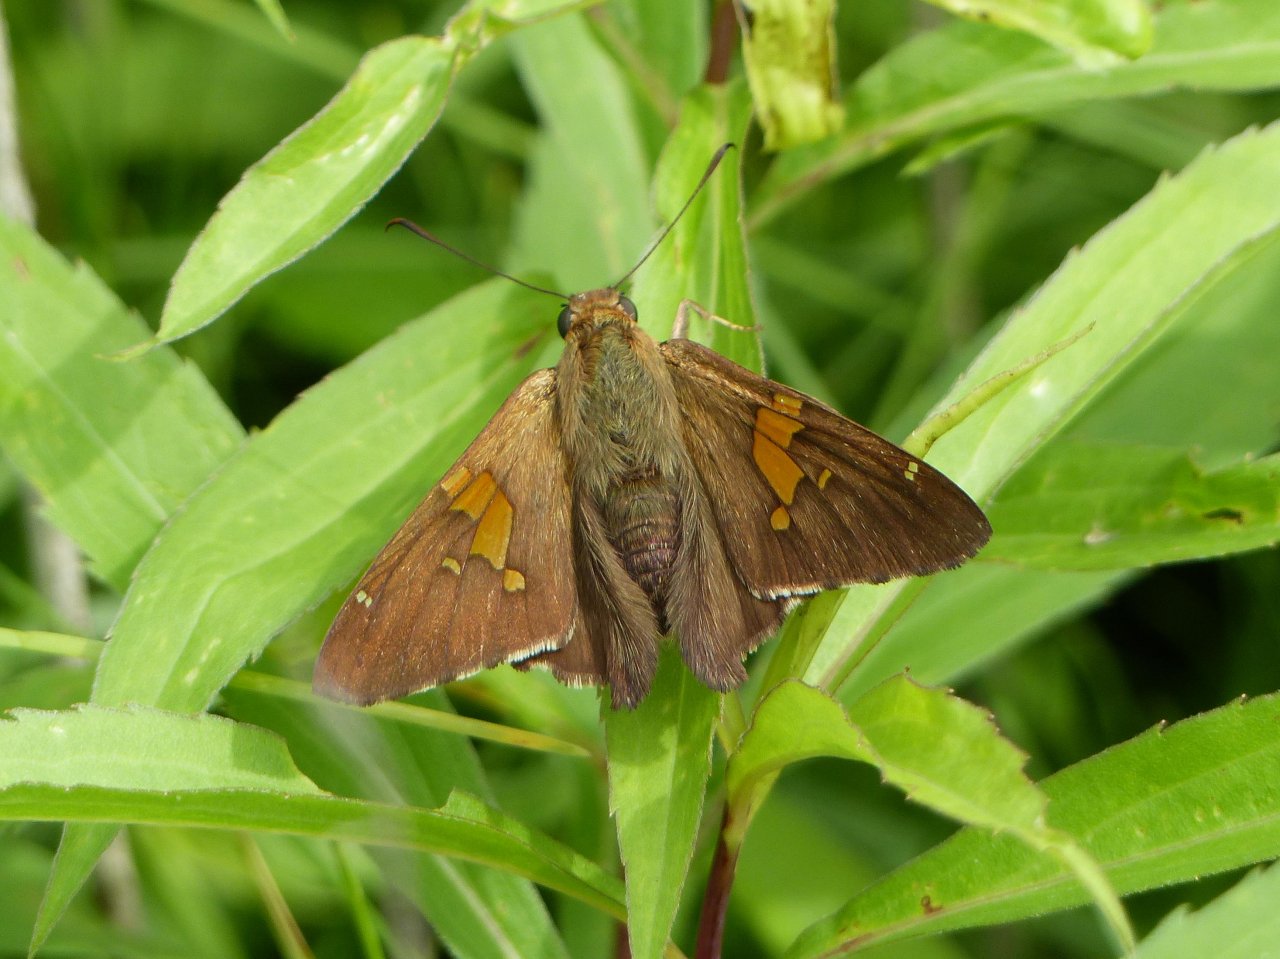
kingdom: Animalia
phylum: Arthropoda
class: Insecta
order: Lepidoptera
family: Hesperiidae
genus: Epargyreus
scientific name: Epargyreus clarus
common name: Silver-spotted Skipper
